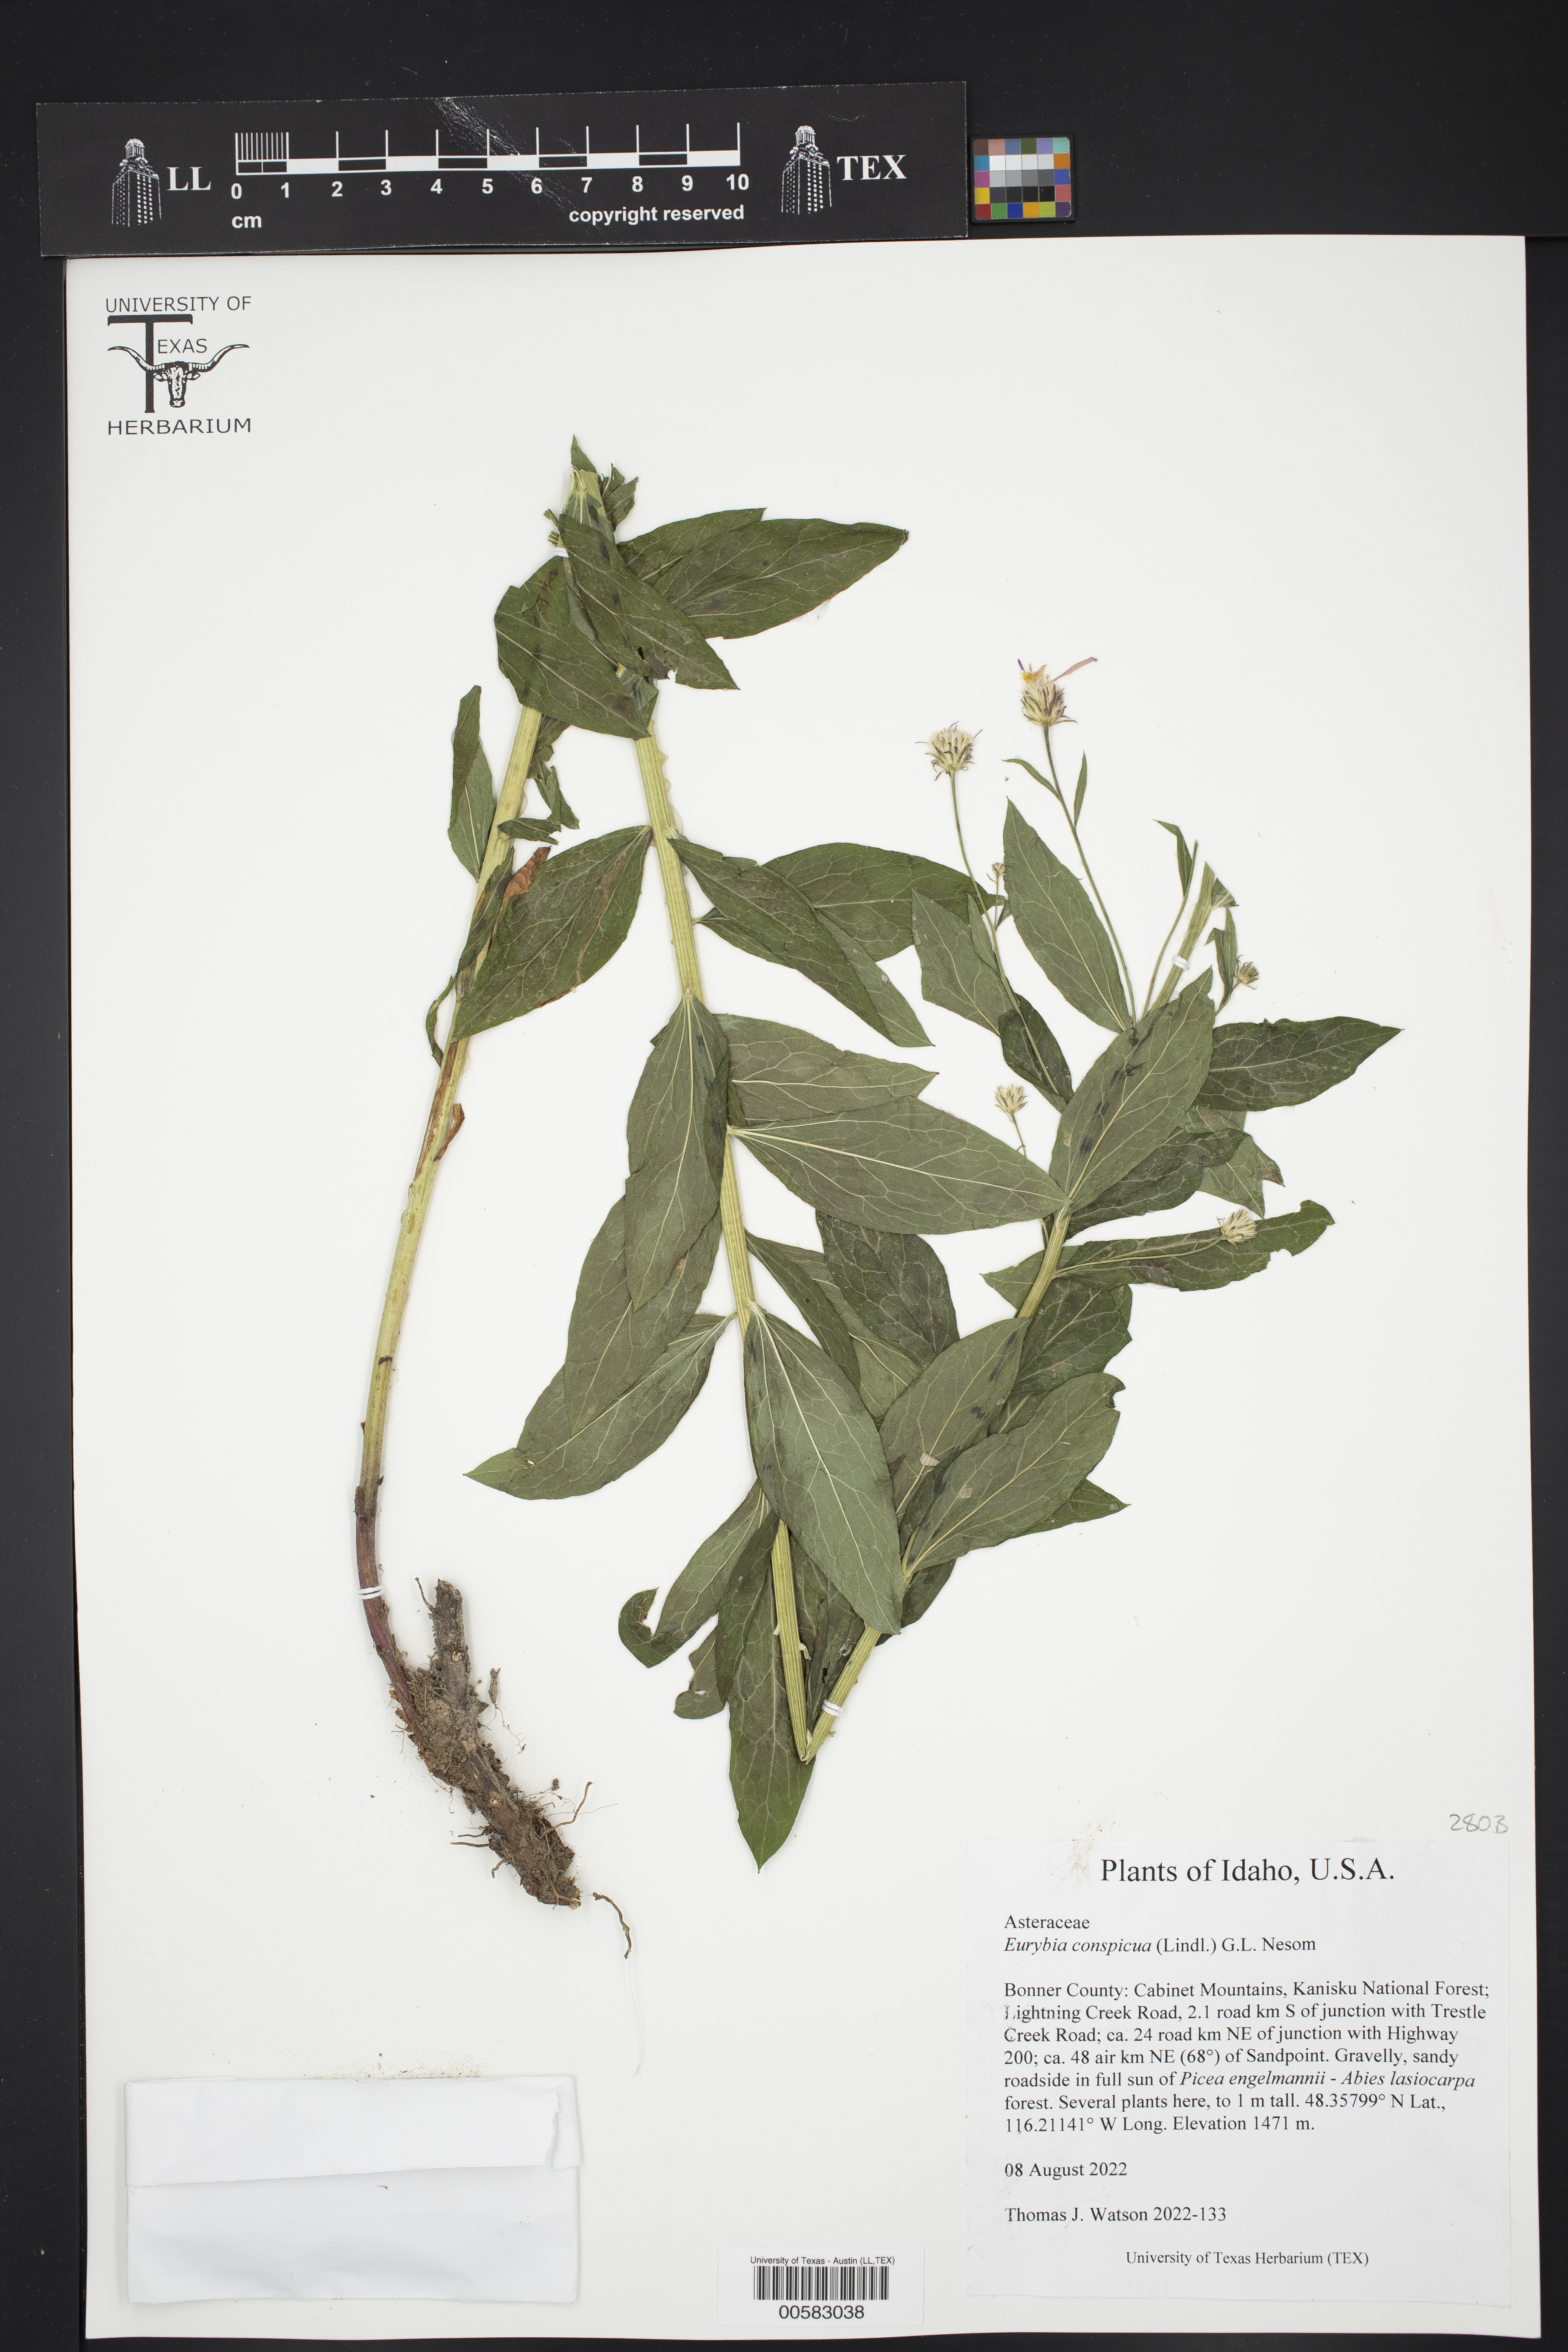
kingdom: Plantae
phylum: Tracheophyta
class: Magnoliopsida
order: Asterales
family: Asteraceae
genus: Eurybia
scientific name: Eurybia conspicua
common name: Showy aster
